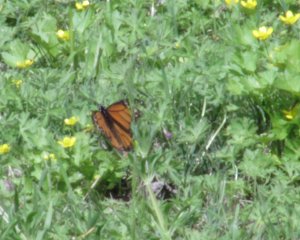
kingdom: Animalia
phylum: Arthropoda
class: Insecta
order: Lepidoptera
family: Nymphalidae
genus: Danaus
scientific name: Danaus plexippus
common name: Monarch
